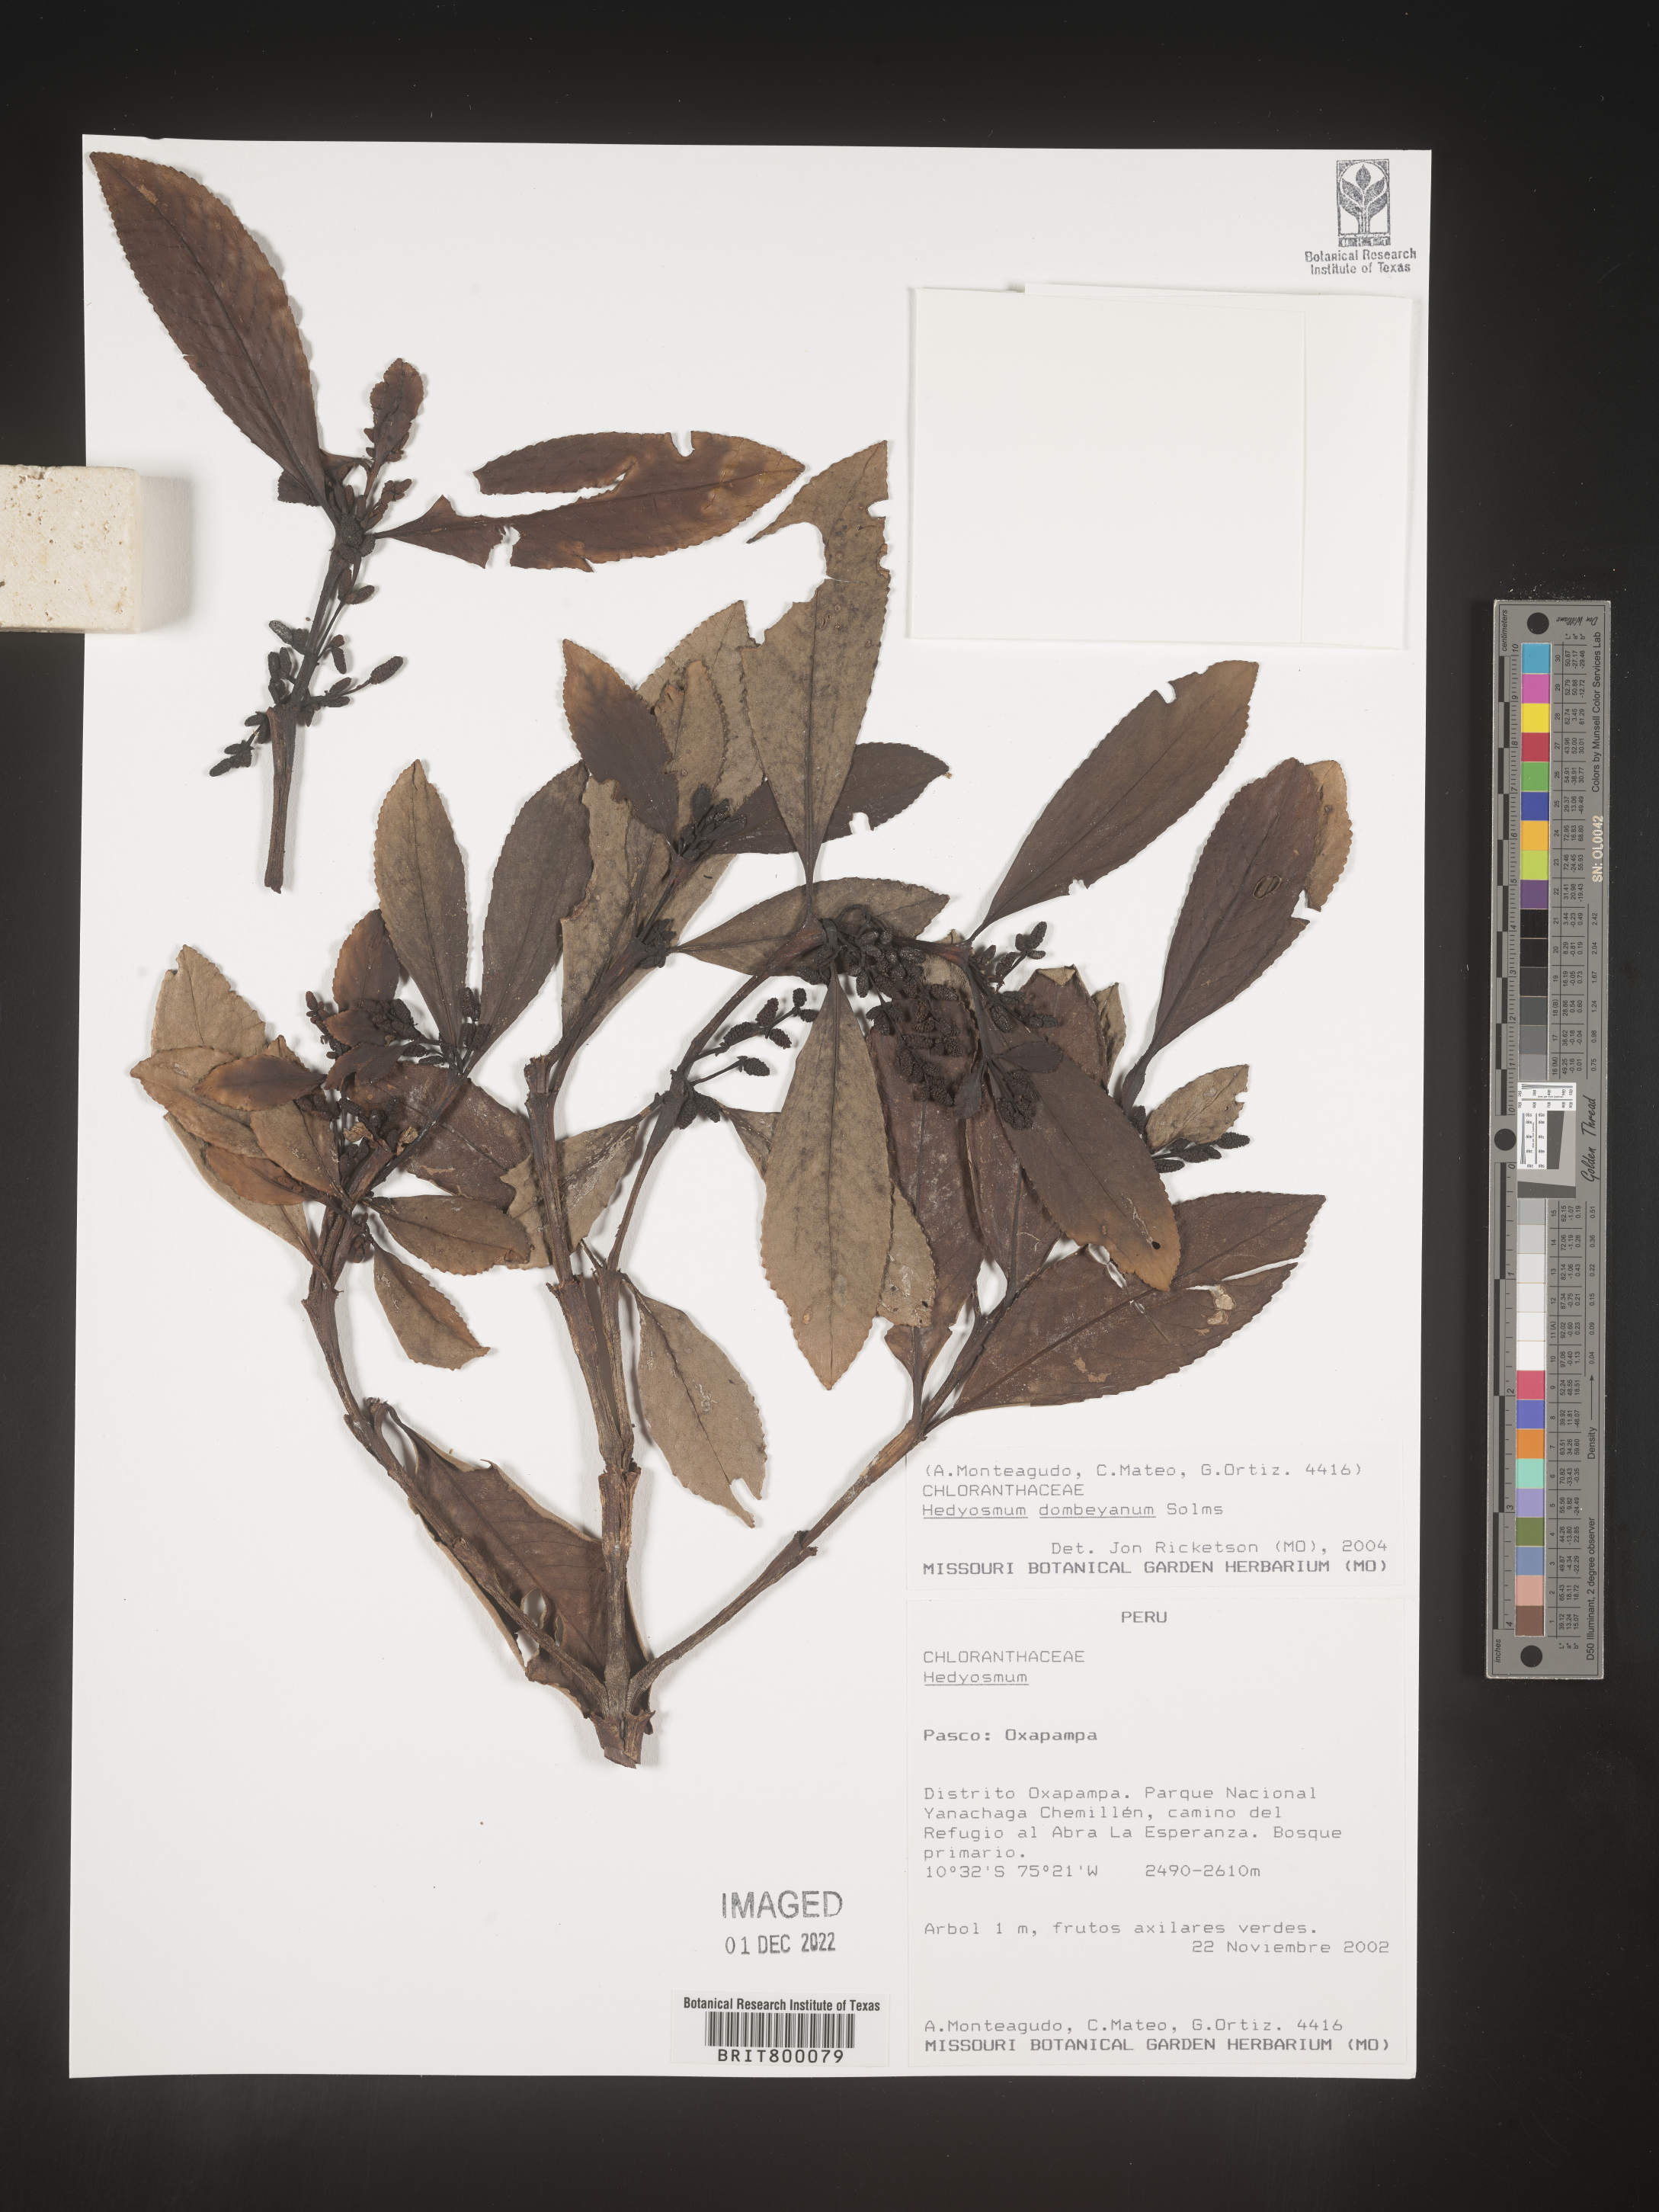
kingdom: Plantae
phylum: Tracheophyta
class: Magnoliopsida
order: Chloranthales
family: Chloranthaceae
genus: Hedyosmum
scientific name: Hedyosmum
